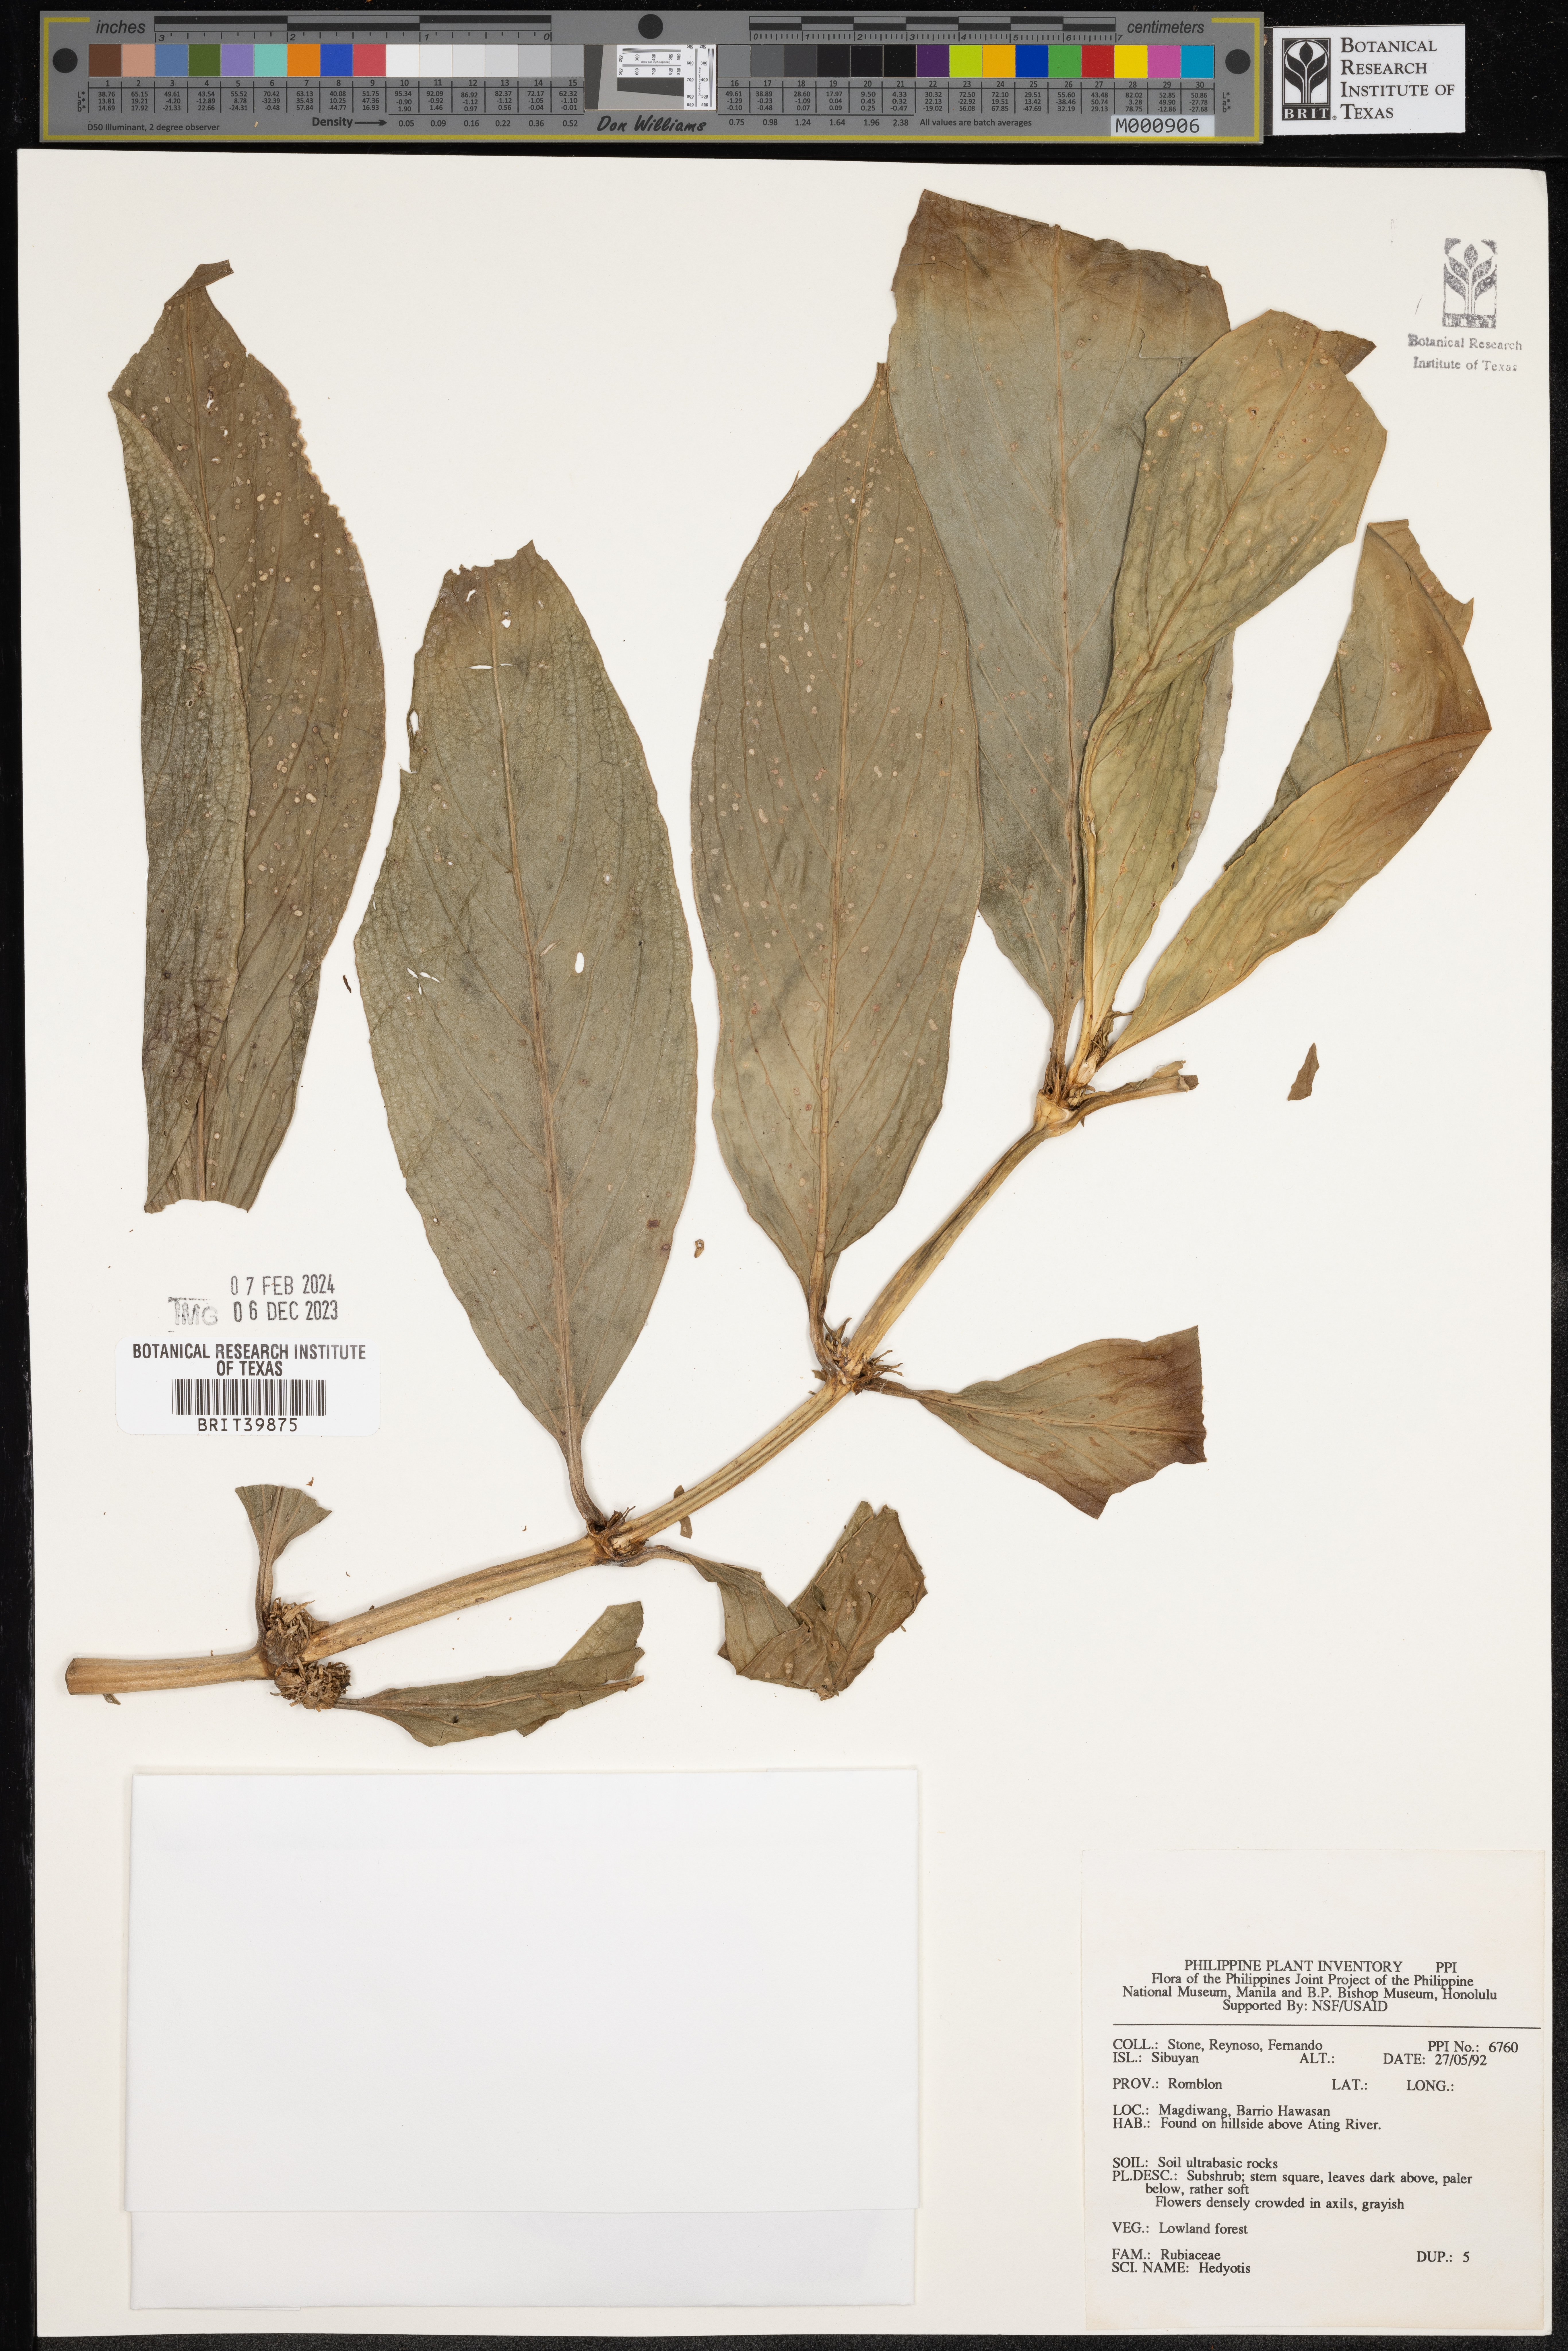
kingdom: Plantae
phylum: Tracheophyta
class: Magnoliopsida
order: Gentianales
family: Rubiaceae
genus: Hedyotis
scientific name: Hedyotis
